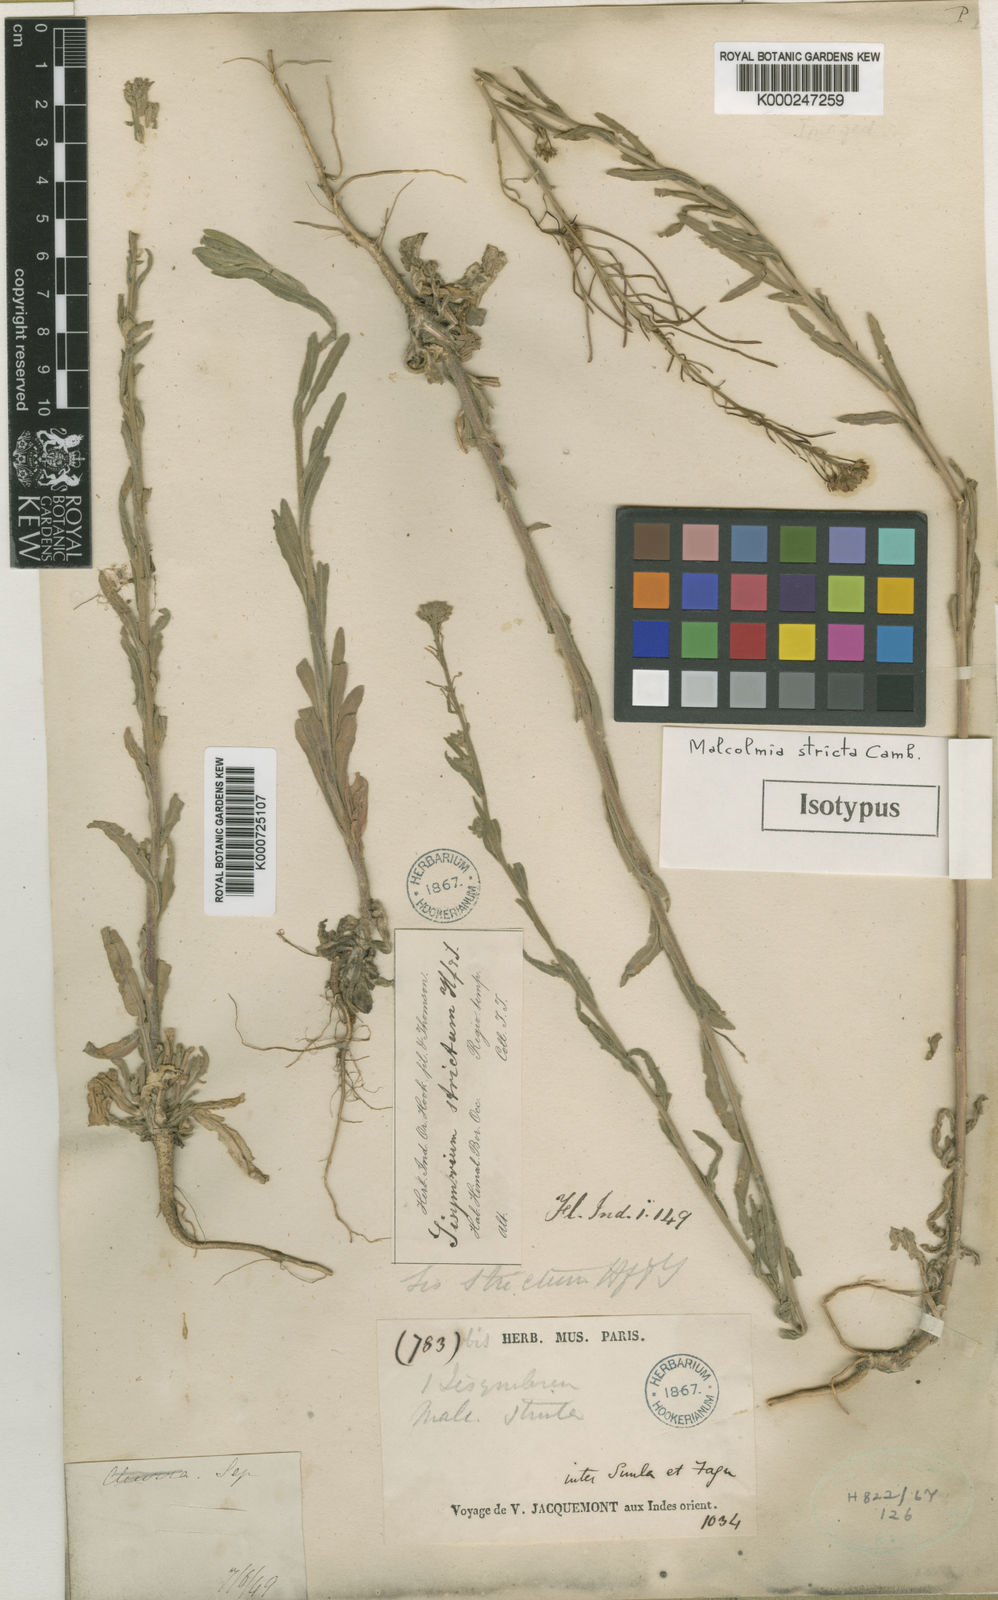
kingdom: Plantae
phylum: Tracheophyta
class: Magnoliopsida
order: Brassicales
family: Brassicaceae
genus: Crucihimalaya
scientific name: Crucihimalaya stricta
